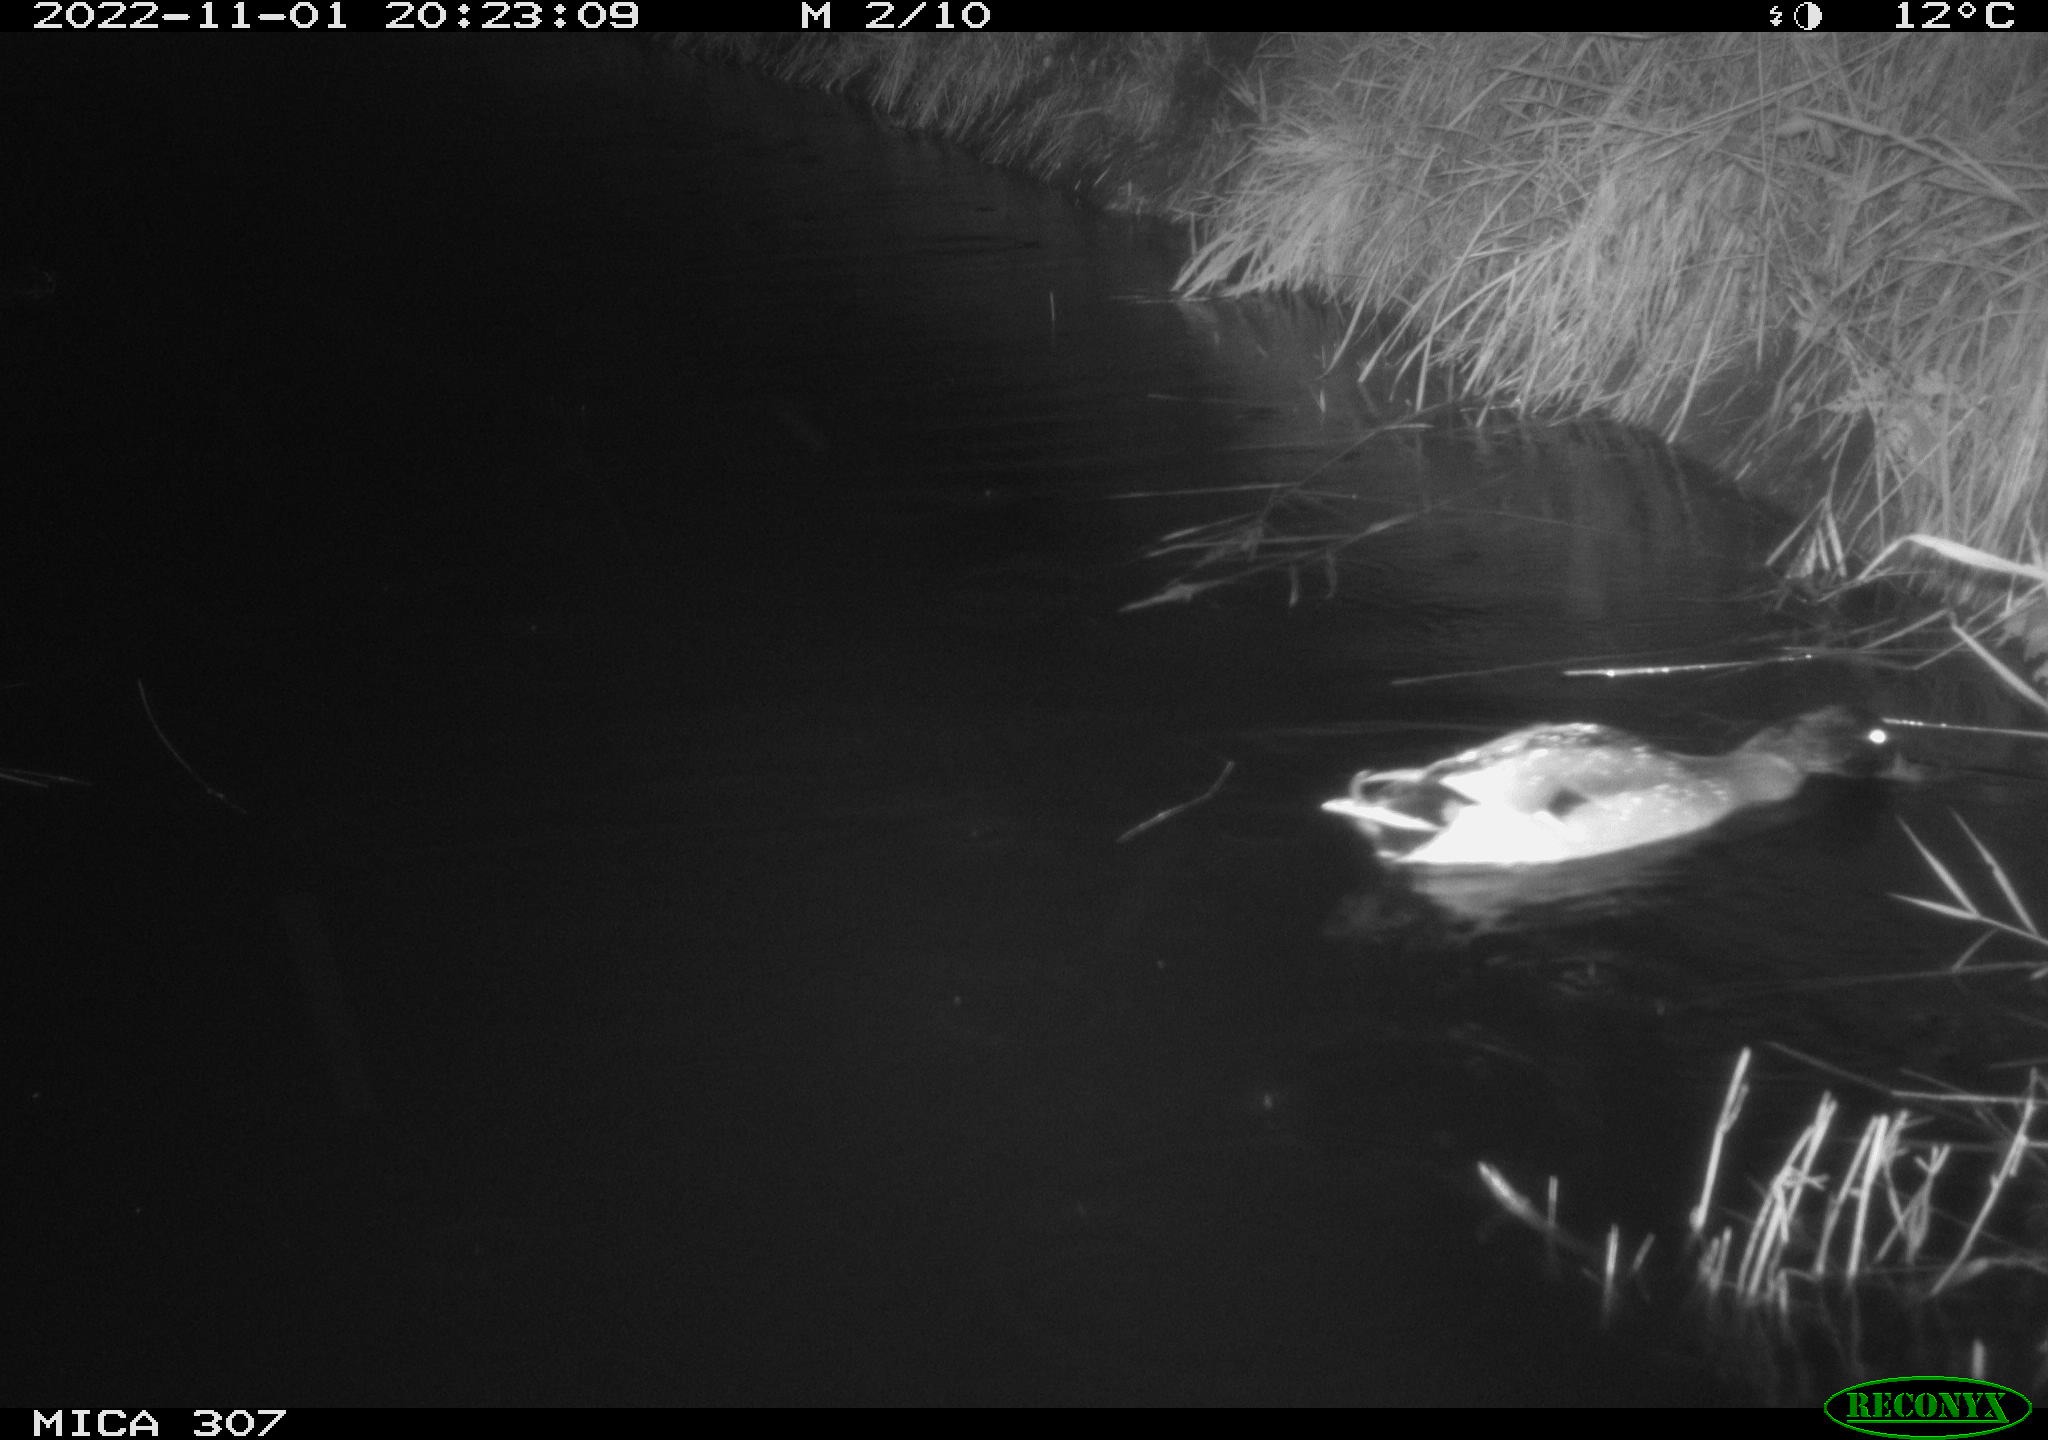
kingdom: Animalia
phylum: Chordata
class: Aves
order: Anseriformes
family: Anatidae
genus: Anas
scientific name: Anas platyrhynchos
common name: Mallard
